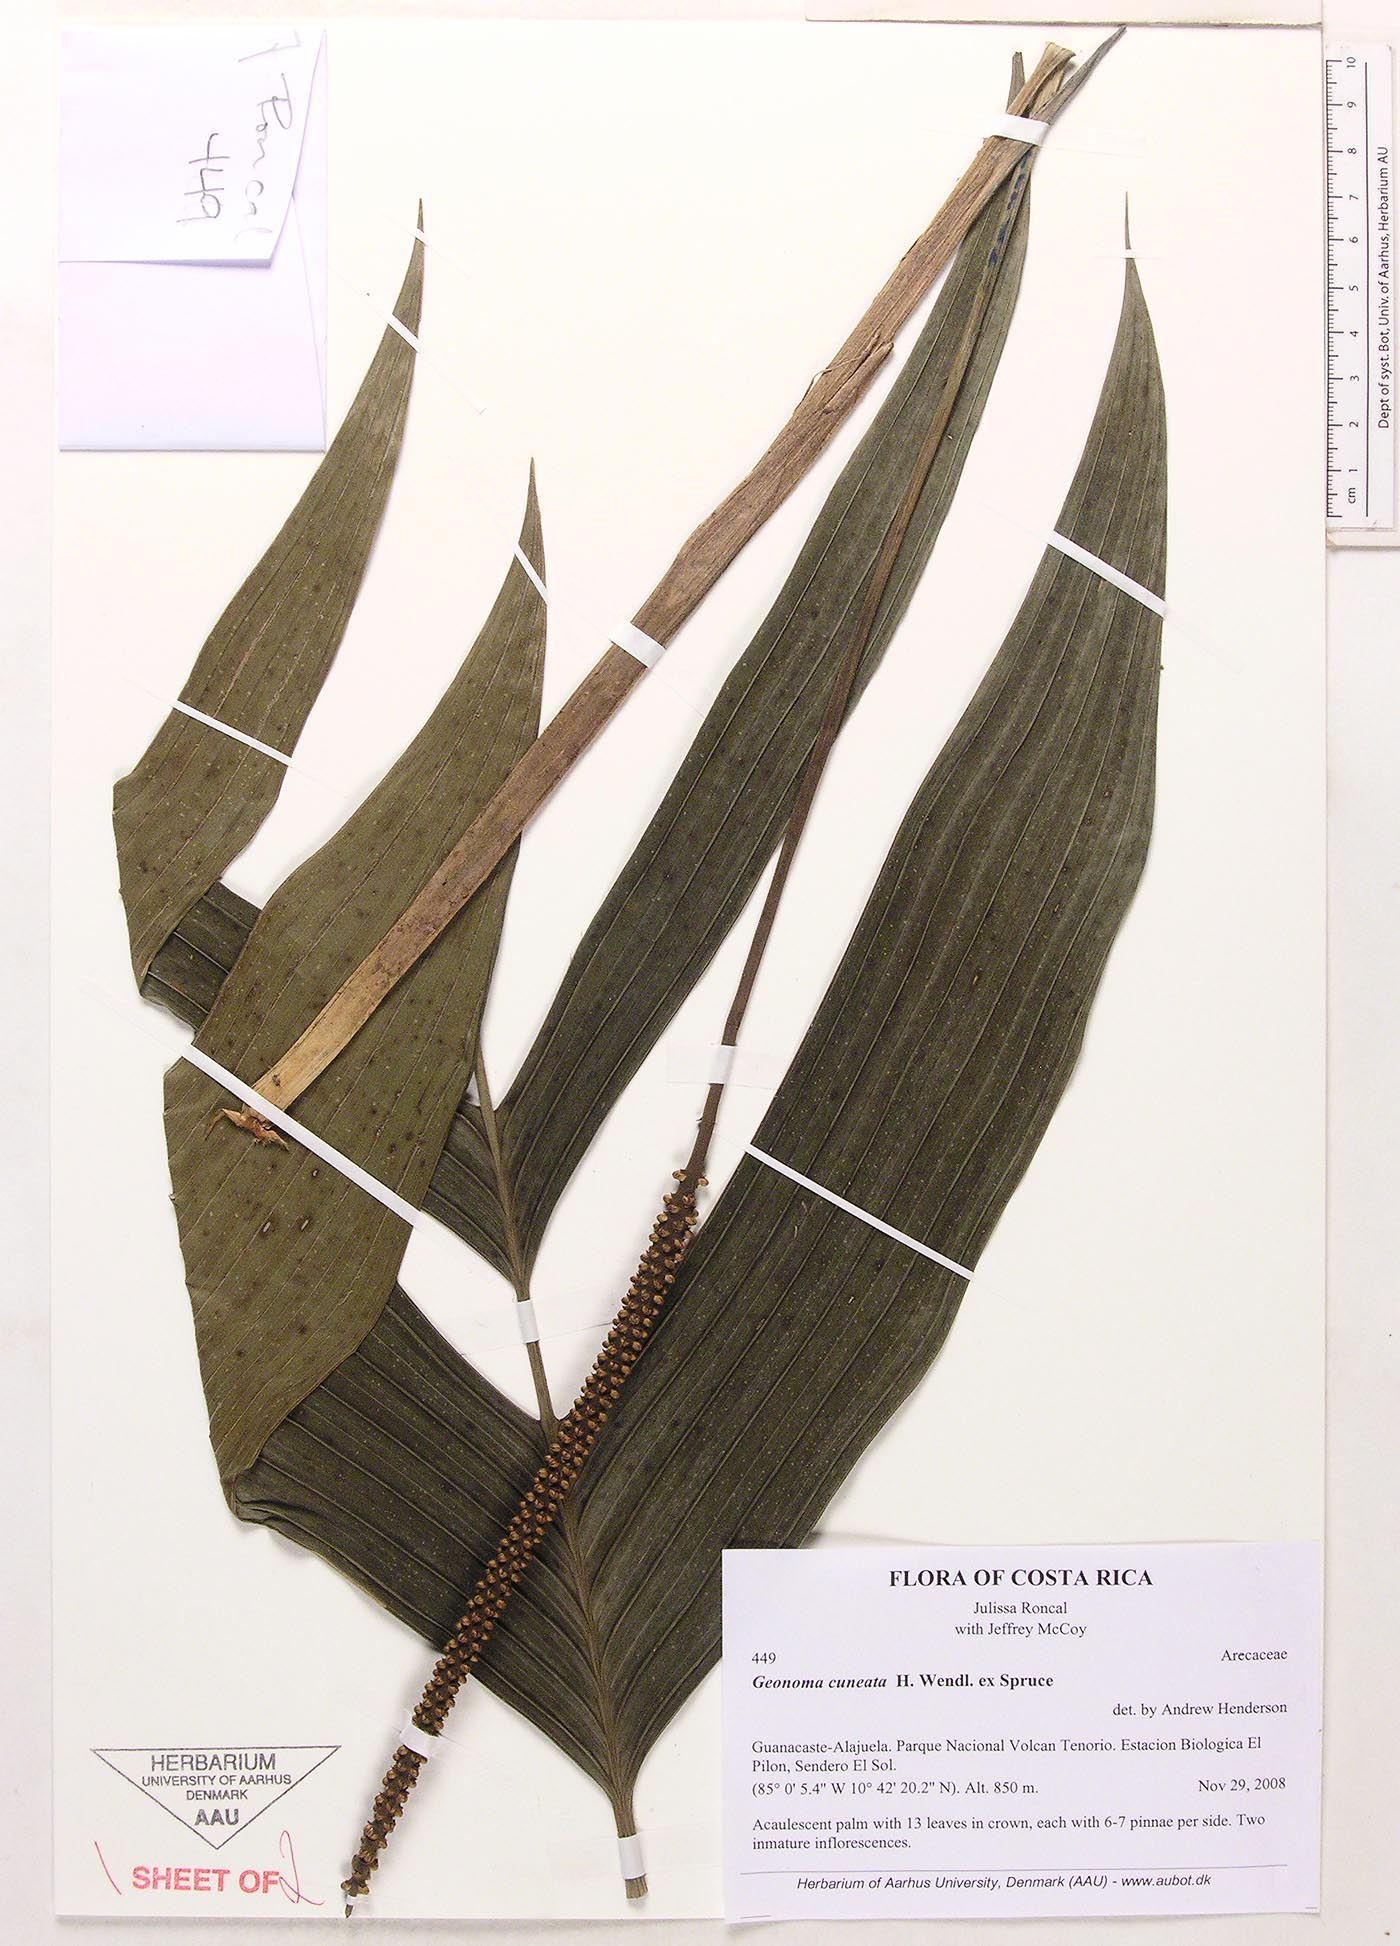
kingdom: Plantae
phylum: Tracheophyta
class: Liliopsida
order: Arecales
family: Arecaceae
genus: Geonoma
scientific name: Geonoma cuneata
